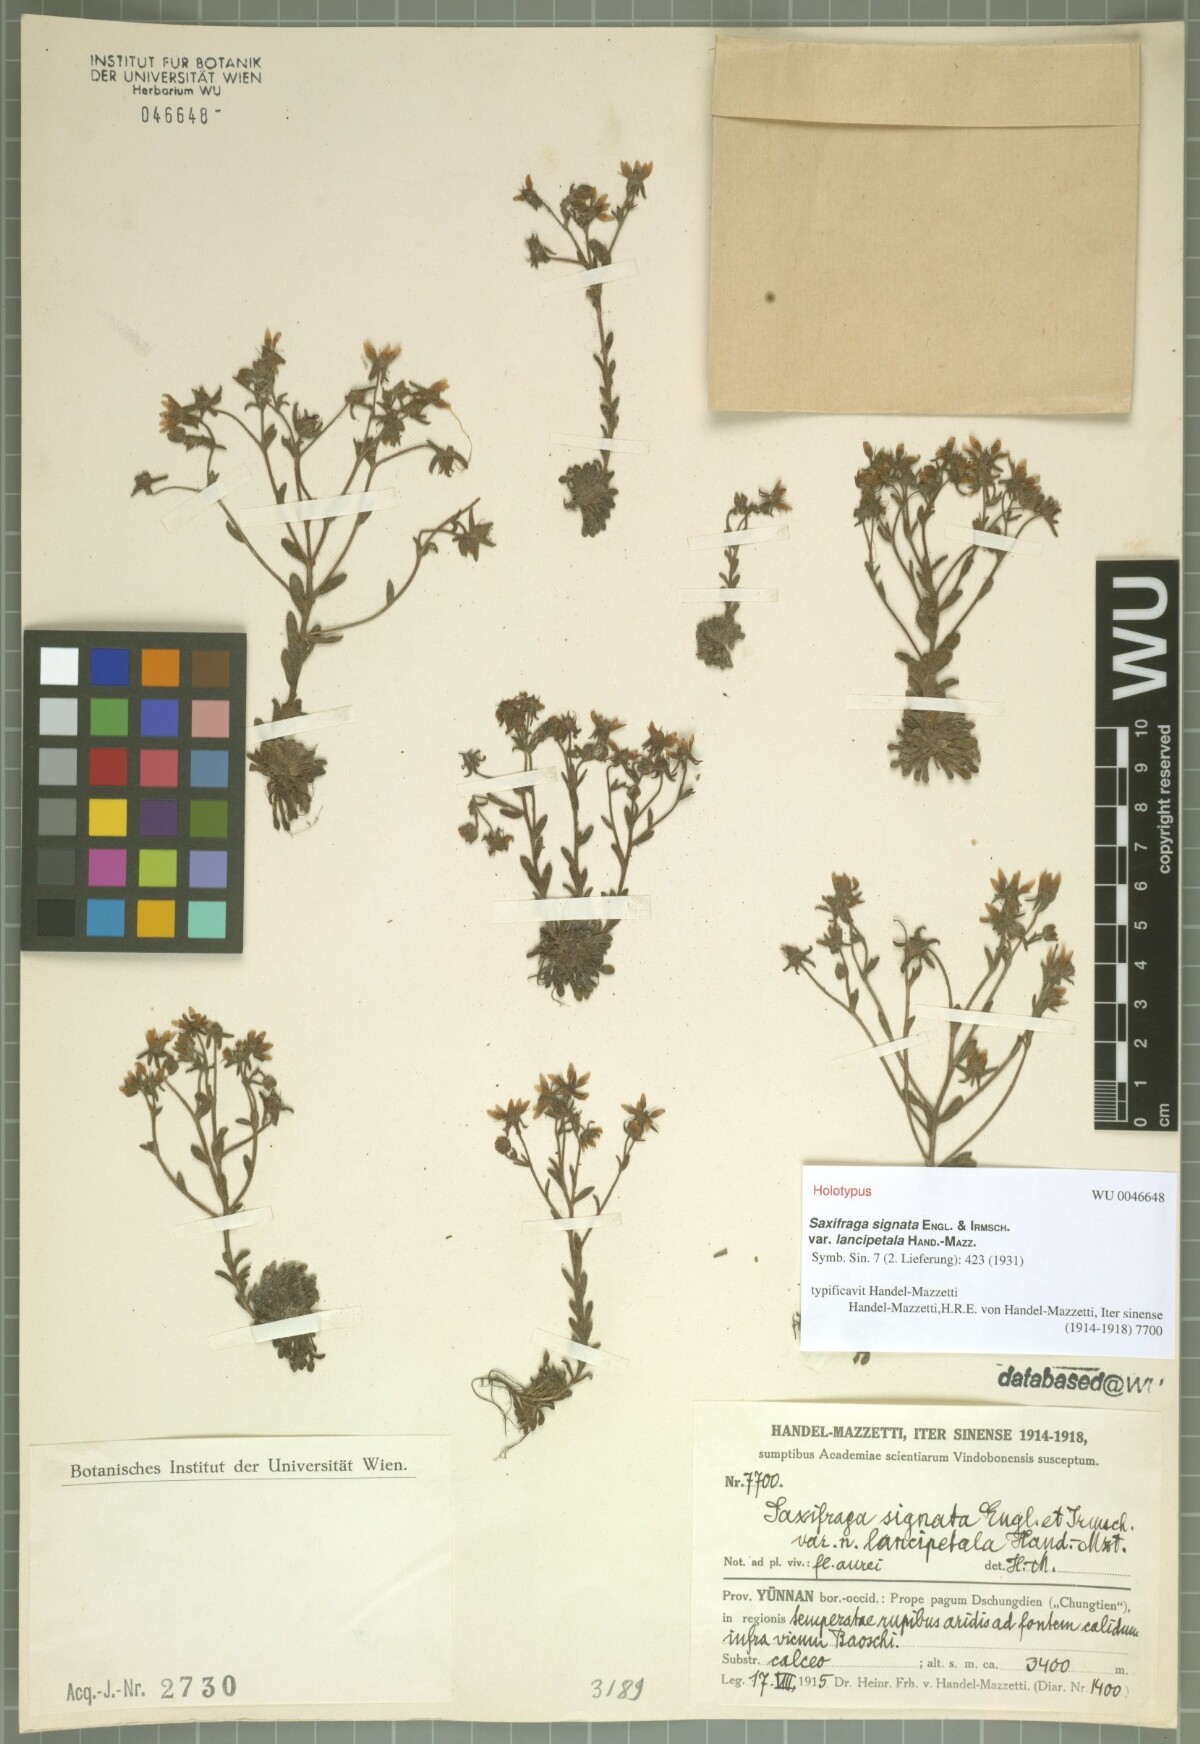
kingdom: Plantae
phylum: Tracheophyta
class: Magnoliopsida
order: Saxifragales
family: Saxifragaceae
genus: Saxifraga
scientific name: Saxifraga signata
